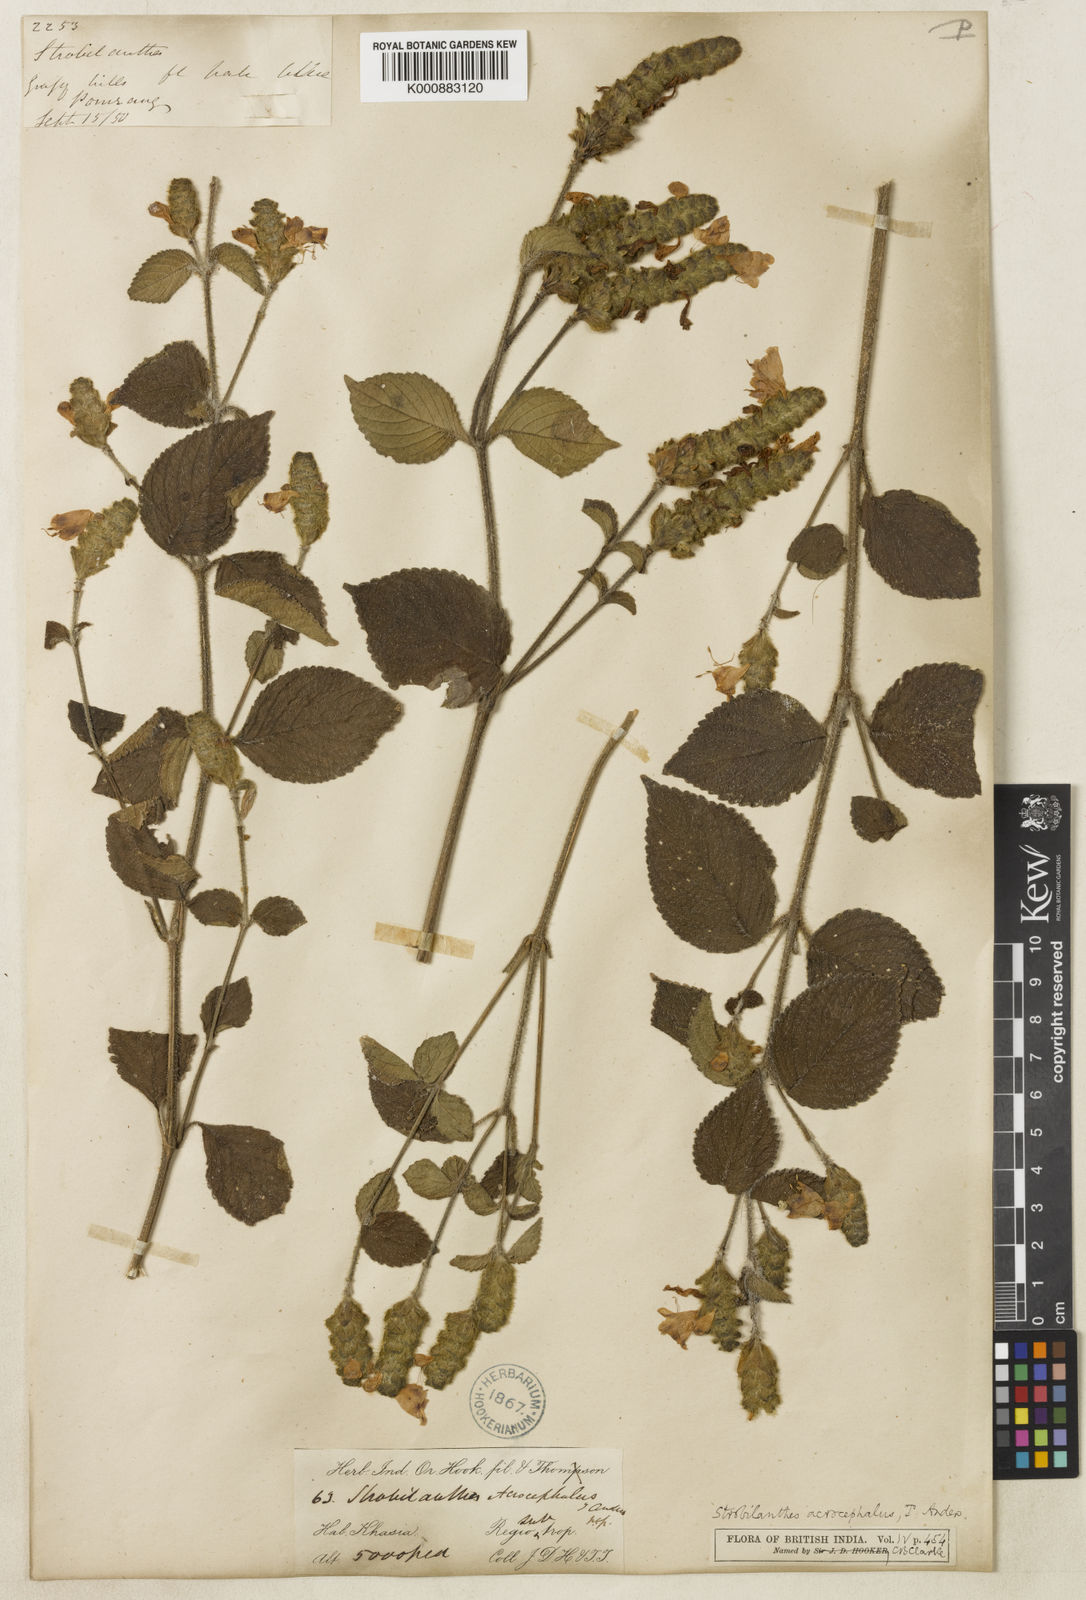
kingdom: Plantae
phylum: Tracheophyta
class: Magnoliopsida
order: Lamiales
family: Acanthaceae
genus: Strobilanthes
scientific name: Strobilanthes
